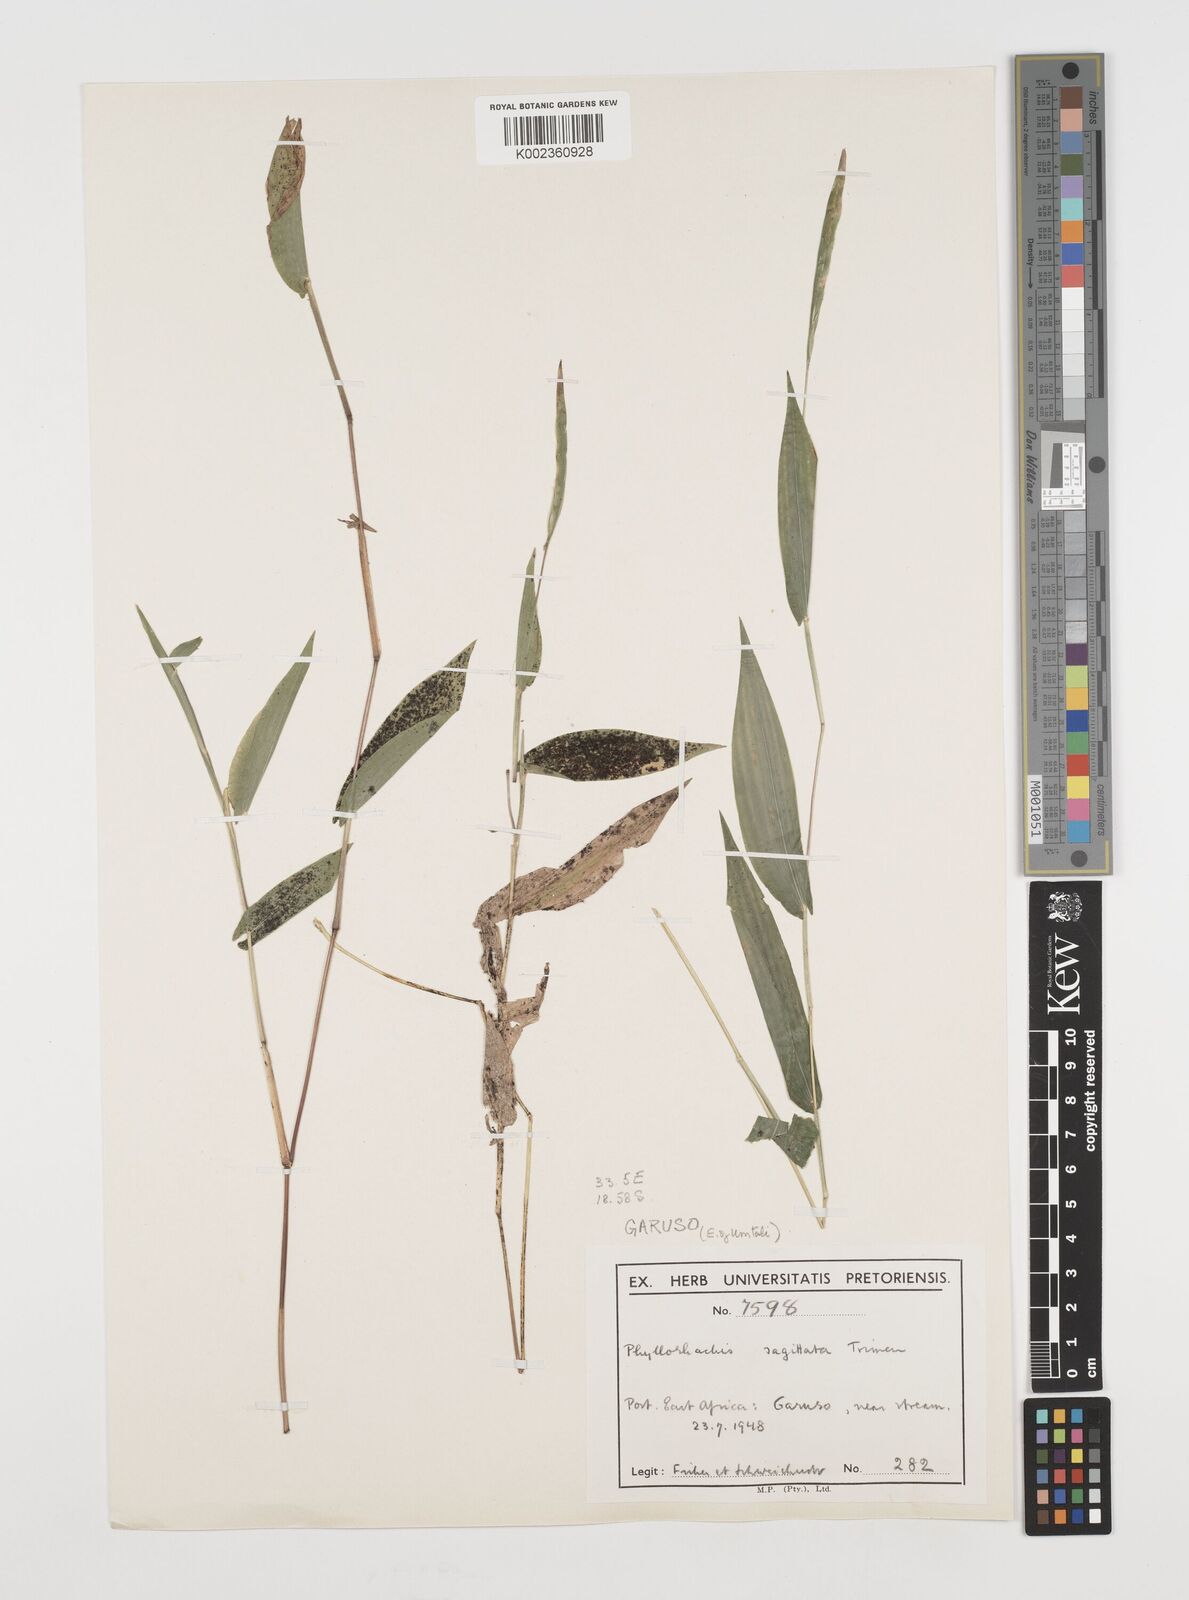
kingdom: Plantae
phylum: Tracheophyta
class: Liliopsida
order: Poales
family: Poaceae
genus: Phyllorachis
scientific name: Phyllorachis sagittata
